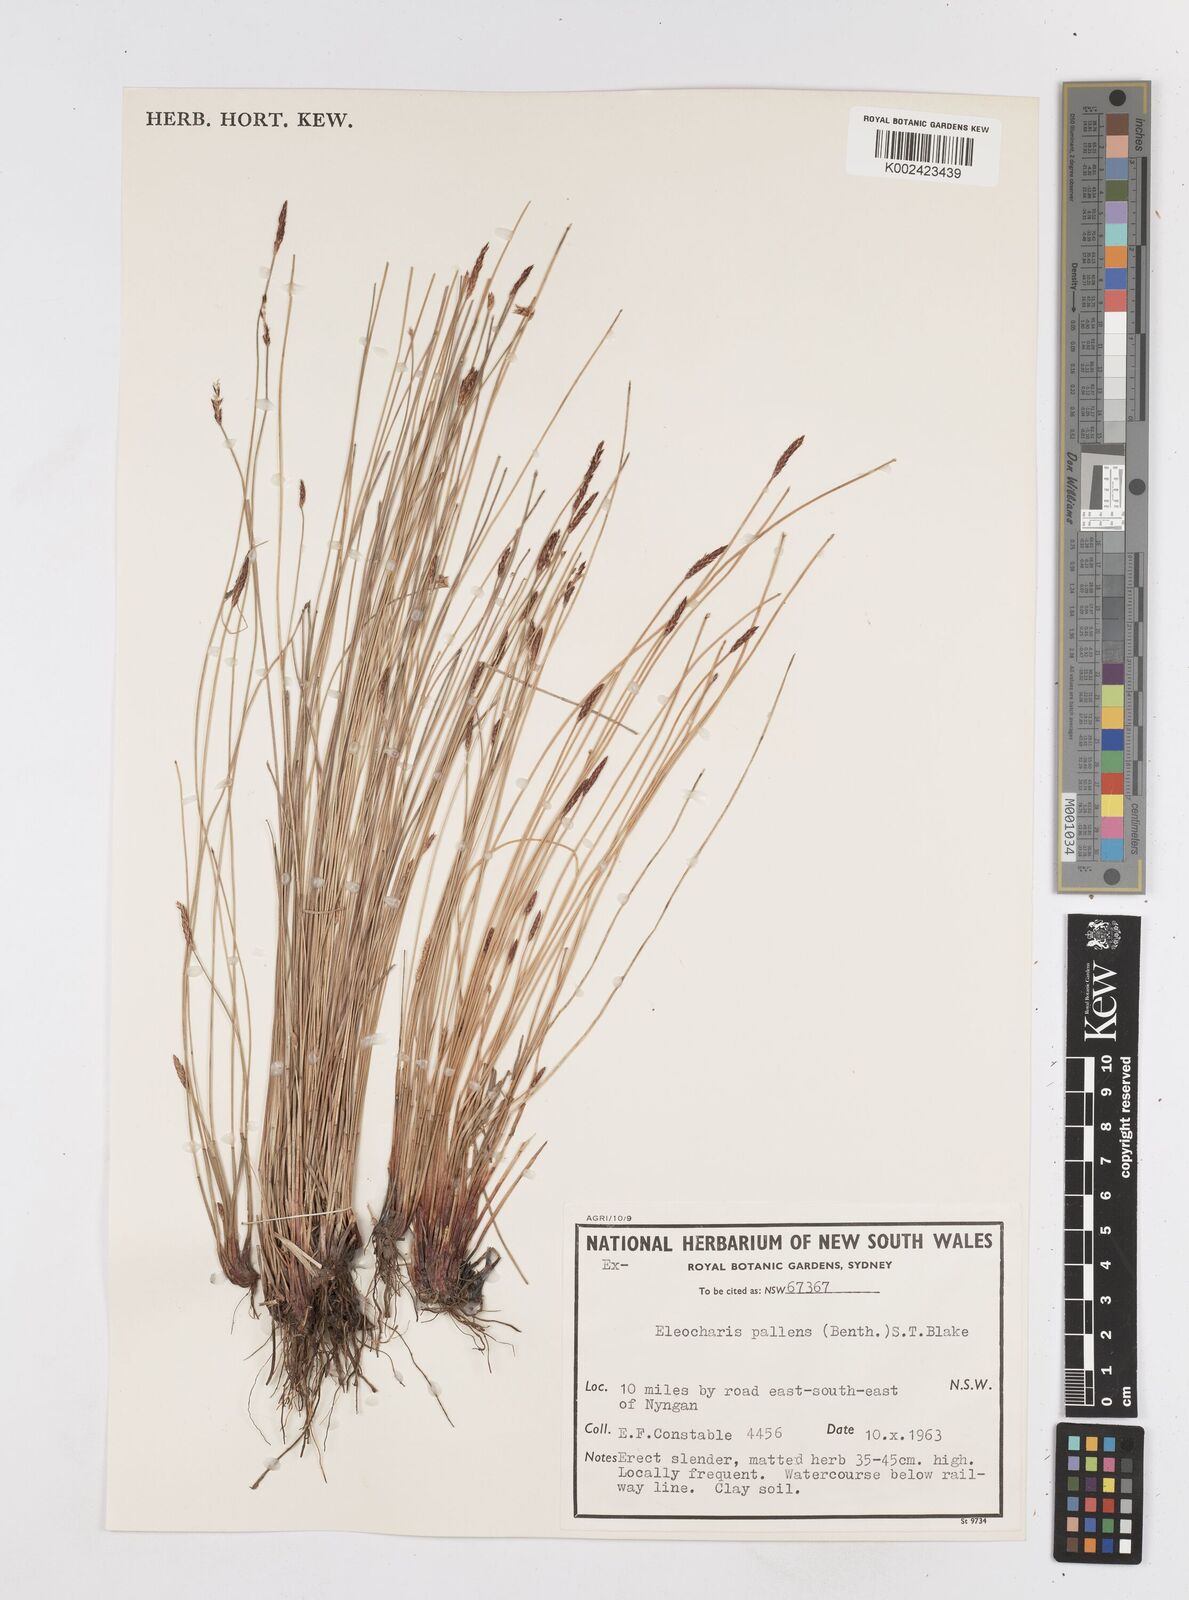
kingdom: Plantae
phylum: Tracheophyta
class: Liliopsida
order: Poales
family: Cyperaceae
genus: Eleocharis
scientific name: Eleocharis acuta
